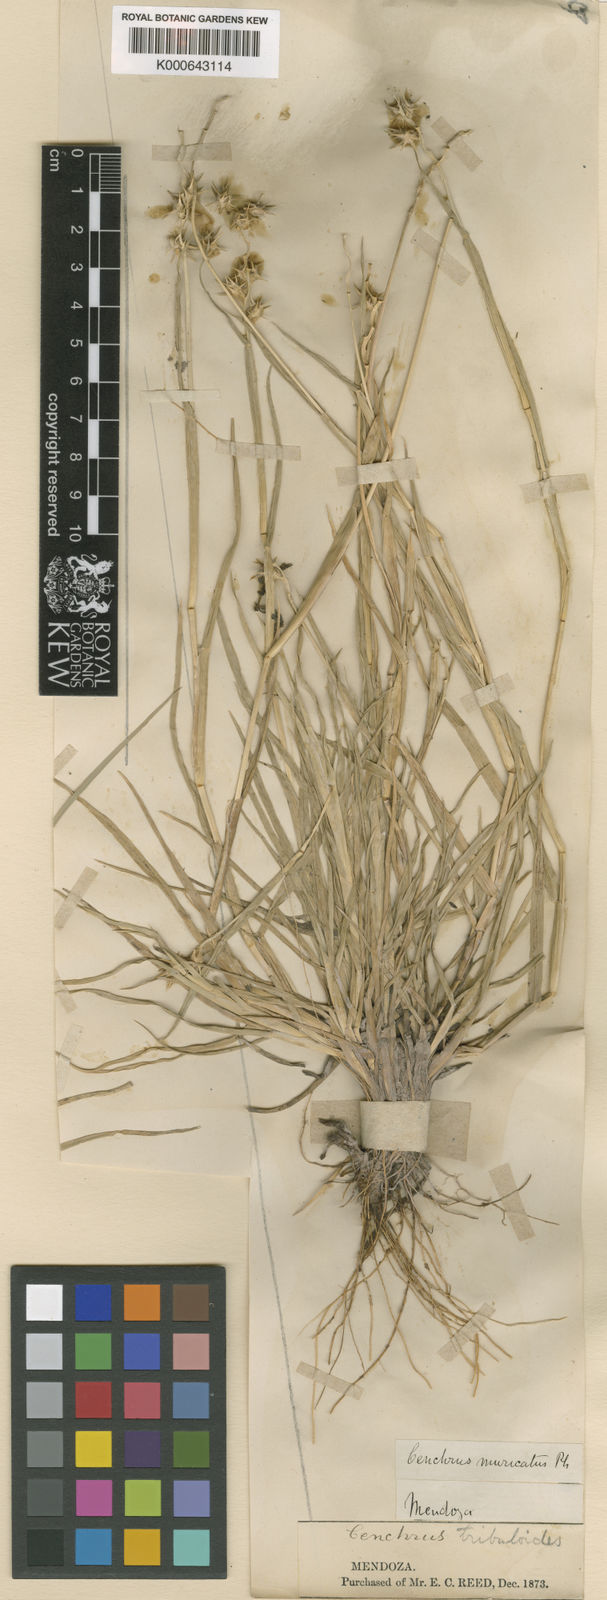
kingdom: Plantae
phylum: Tracheophyta
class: Liliopsida
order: Poales
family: Poaceae
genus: Cenchrus
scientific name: Cenchrus spinifex
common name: Coast sandbur
